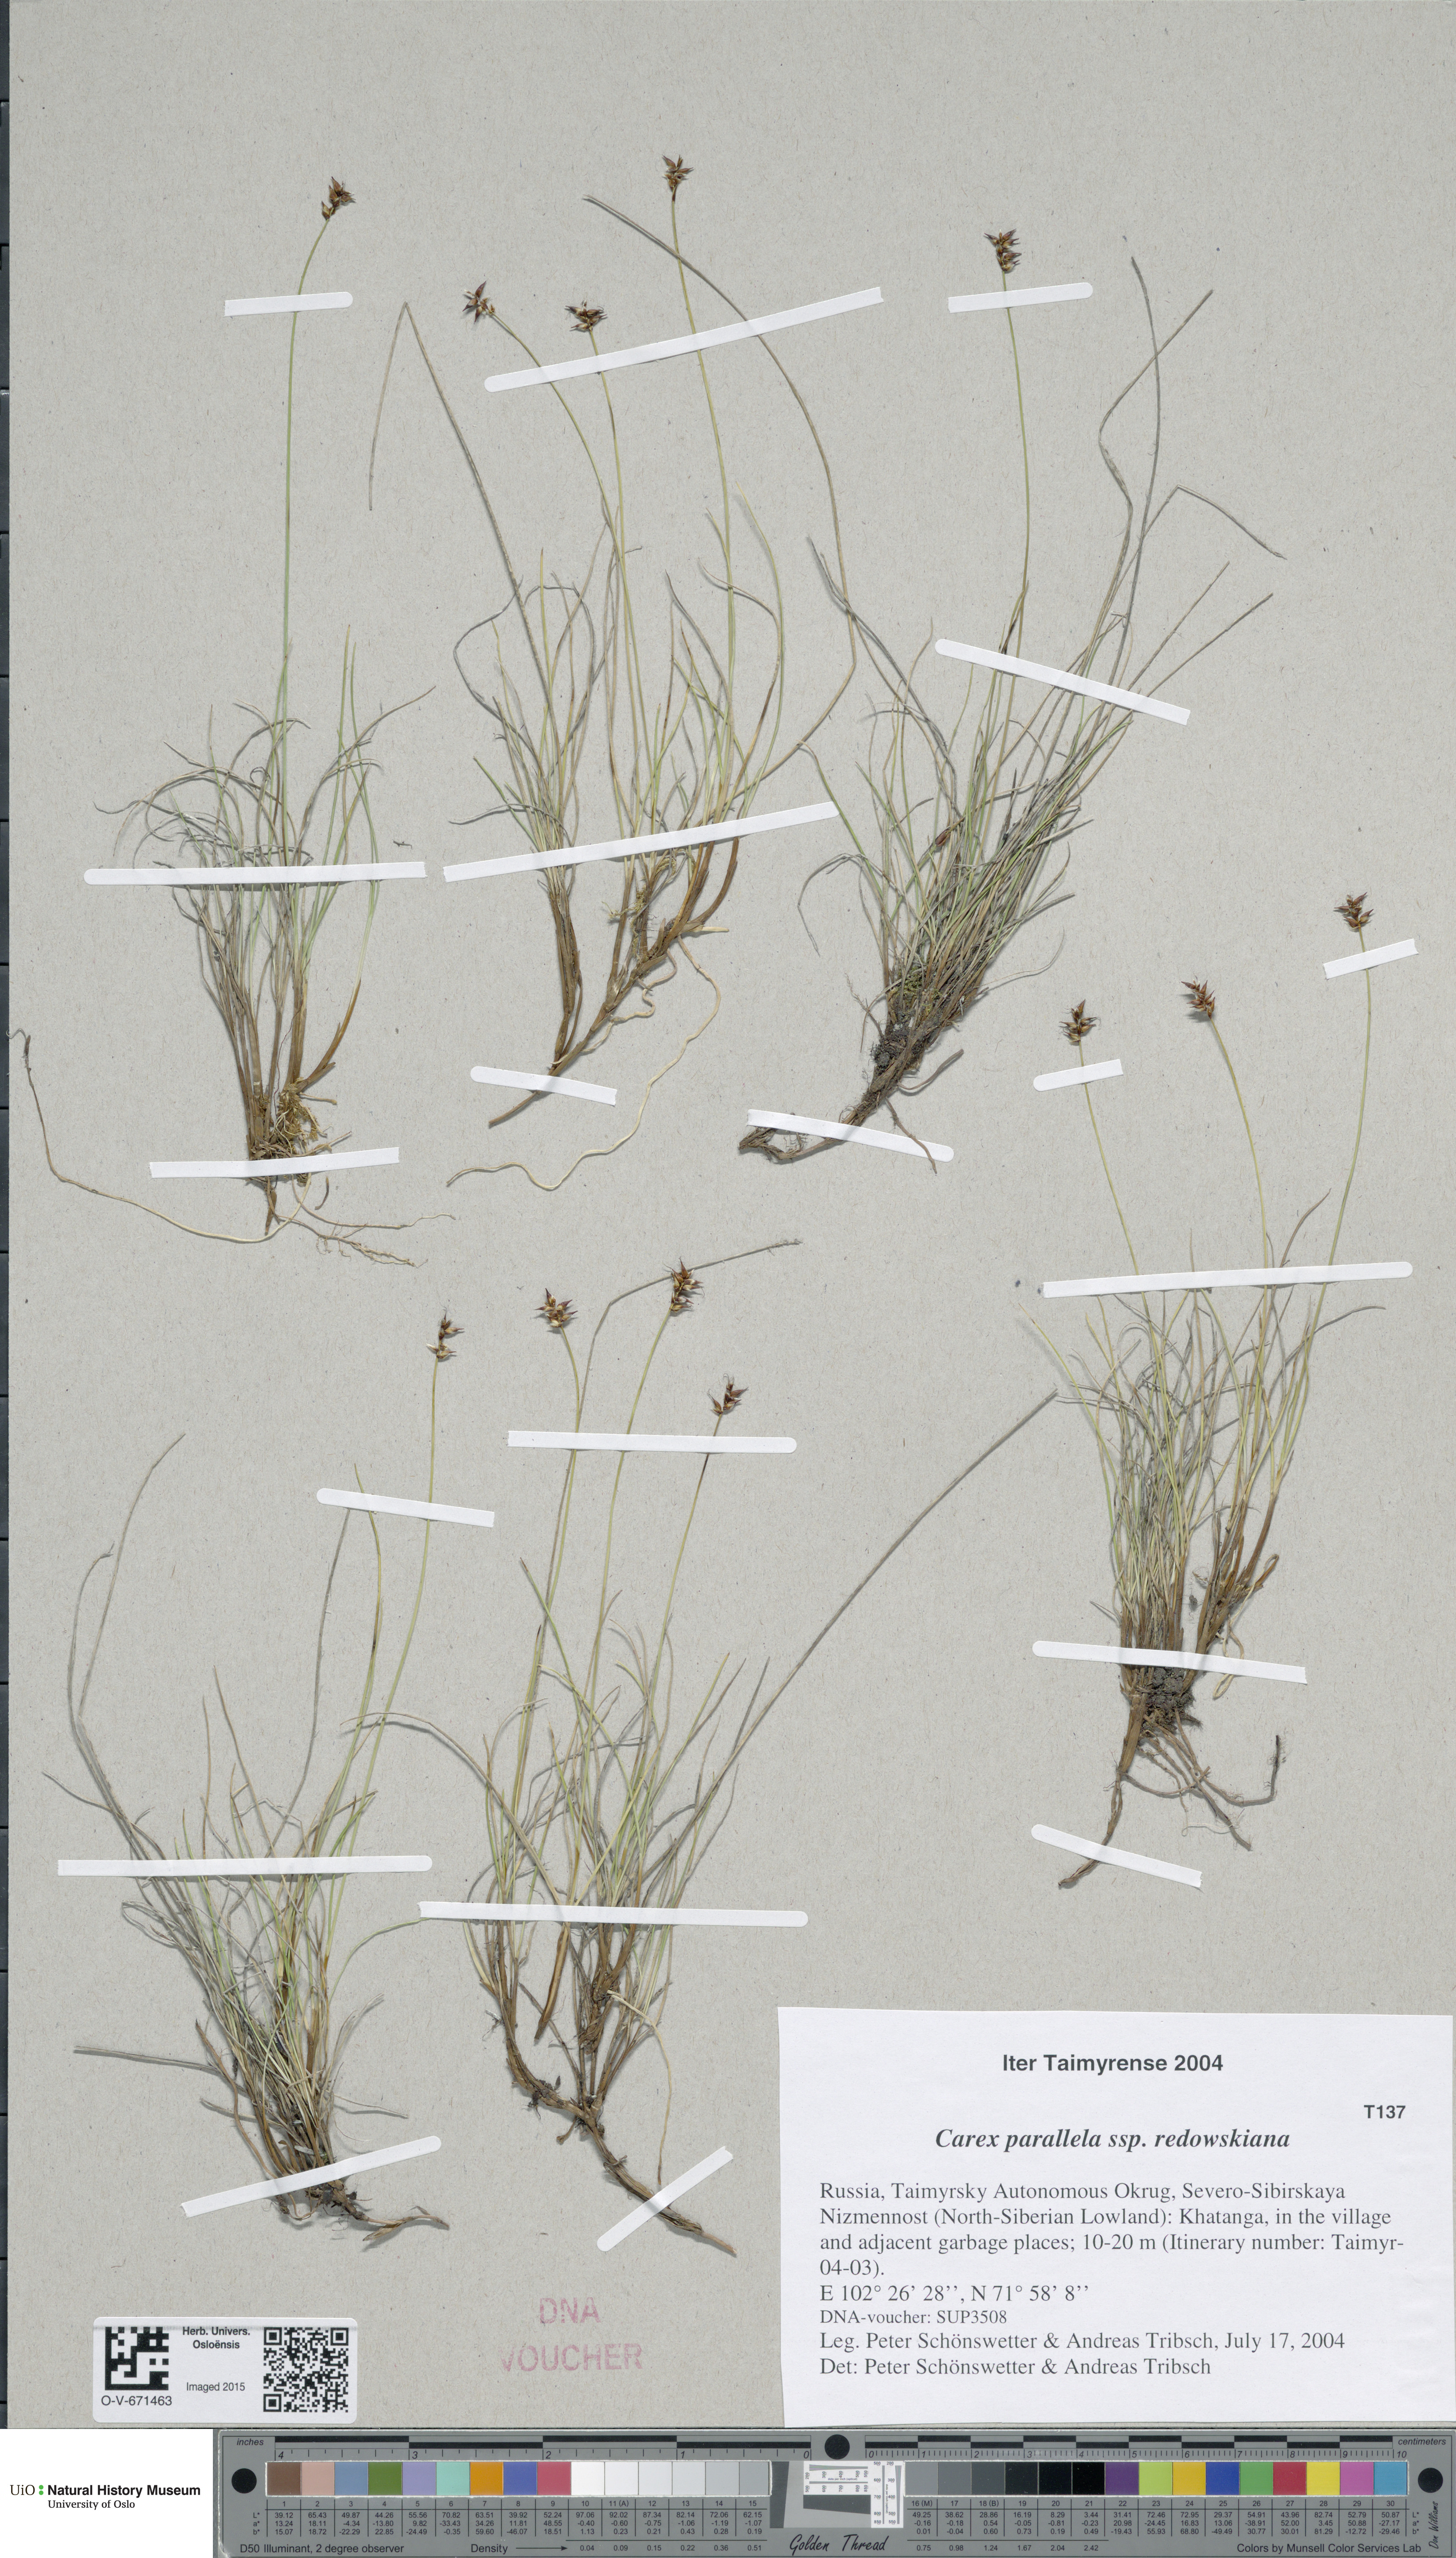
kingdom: Plantae
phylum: Tracheophyta
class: Liliopsida
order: Poales
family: Cyperaceae
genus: Carex
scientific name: Carex parallela
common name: Parallel sedge
